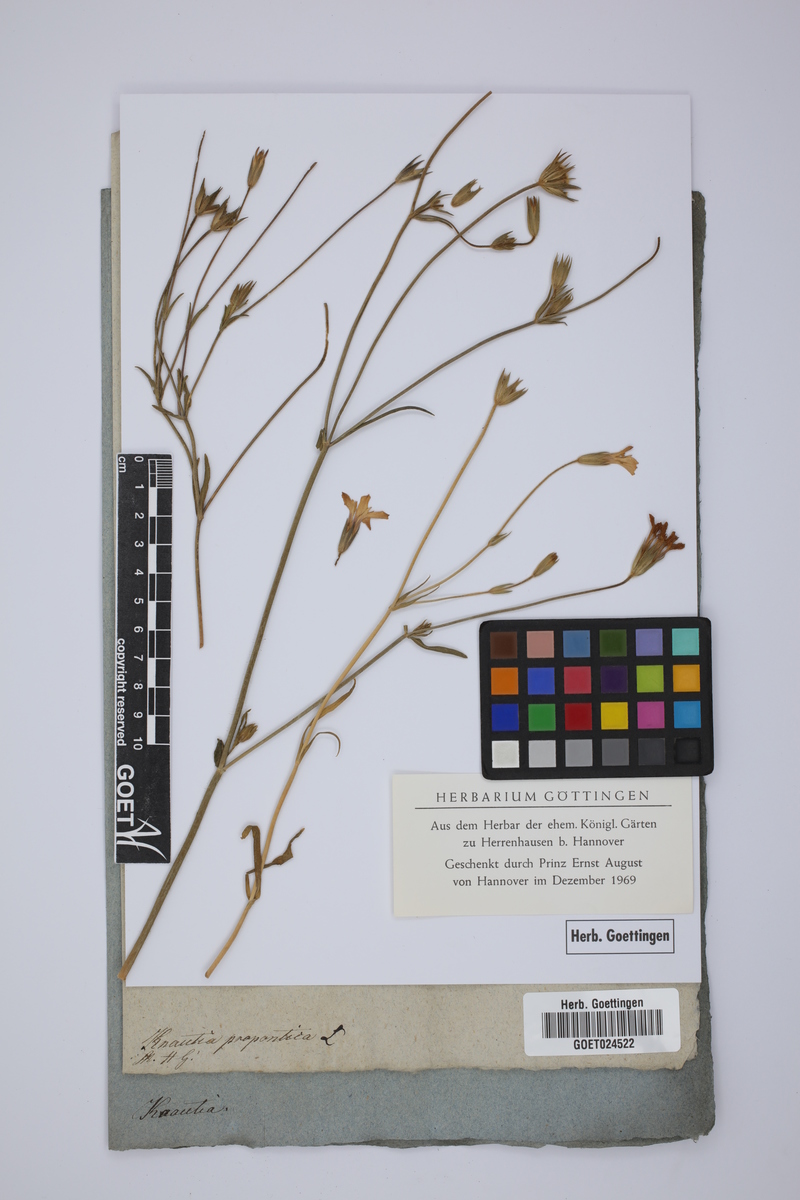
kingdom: Plantae
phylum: Tracheophyta
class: Magnoliopsida
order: Dipsacales
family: Caprifoliaceae
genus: Knautia
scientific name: Knautia orientalis
